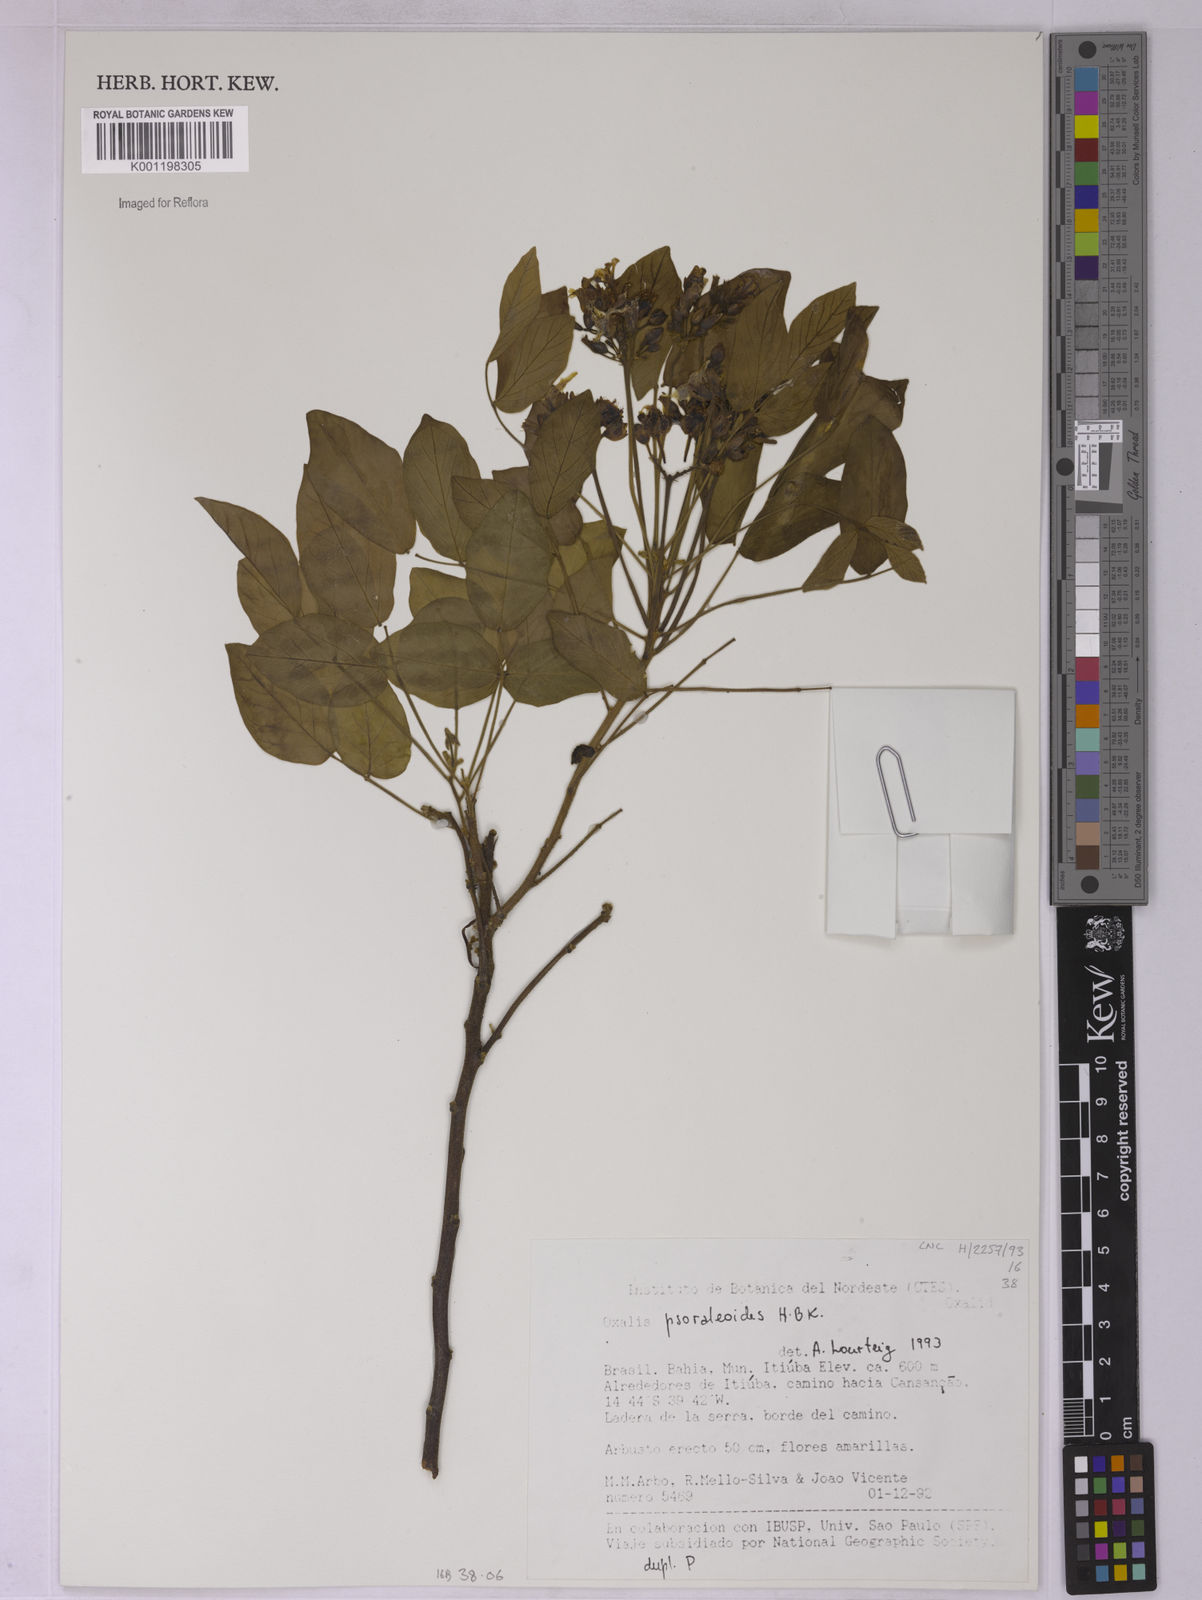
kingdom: Plantae
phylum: Tracheophyta
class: Magnoliopsida
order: Oxalidales
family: Oxalidaceae
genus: Oxalis
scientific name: Oxalis psoraleoides
